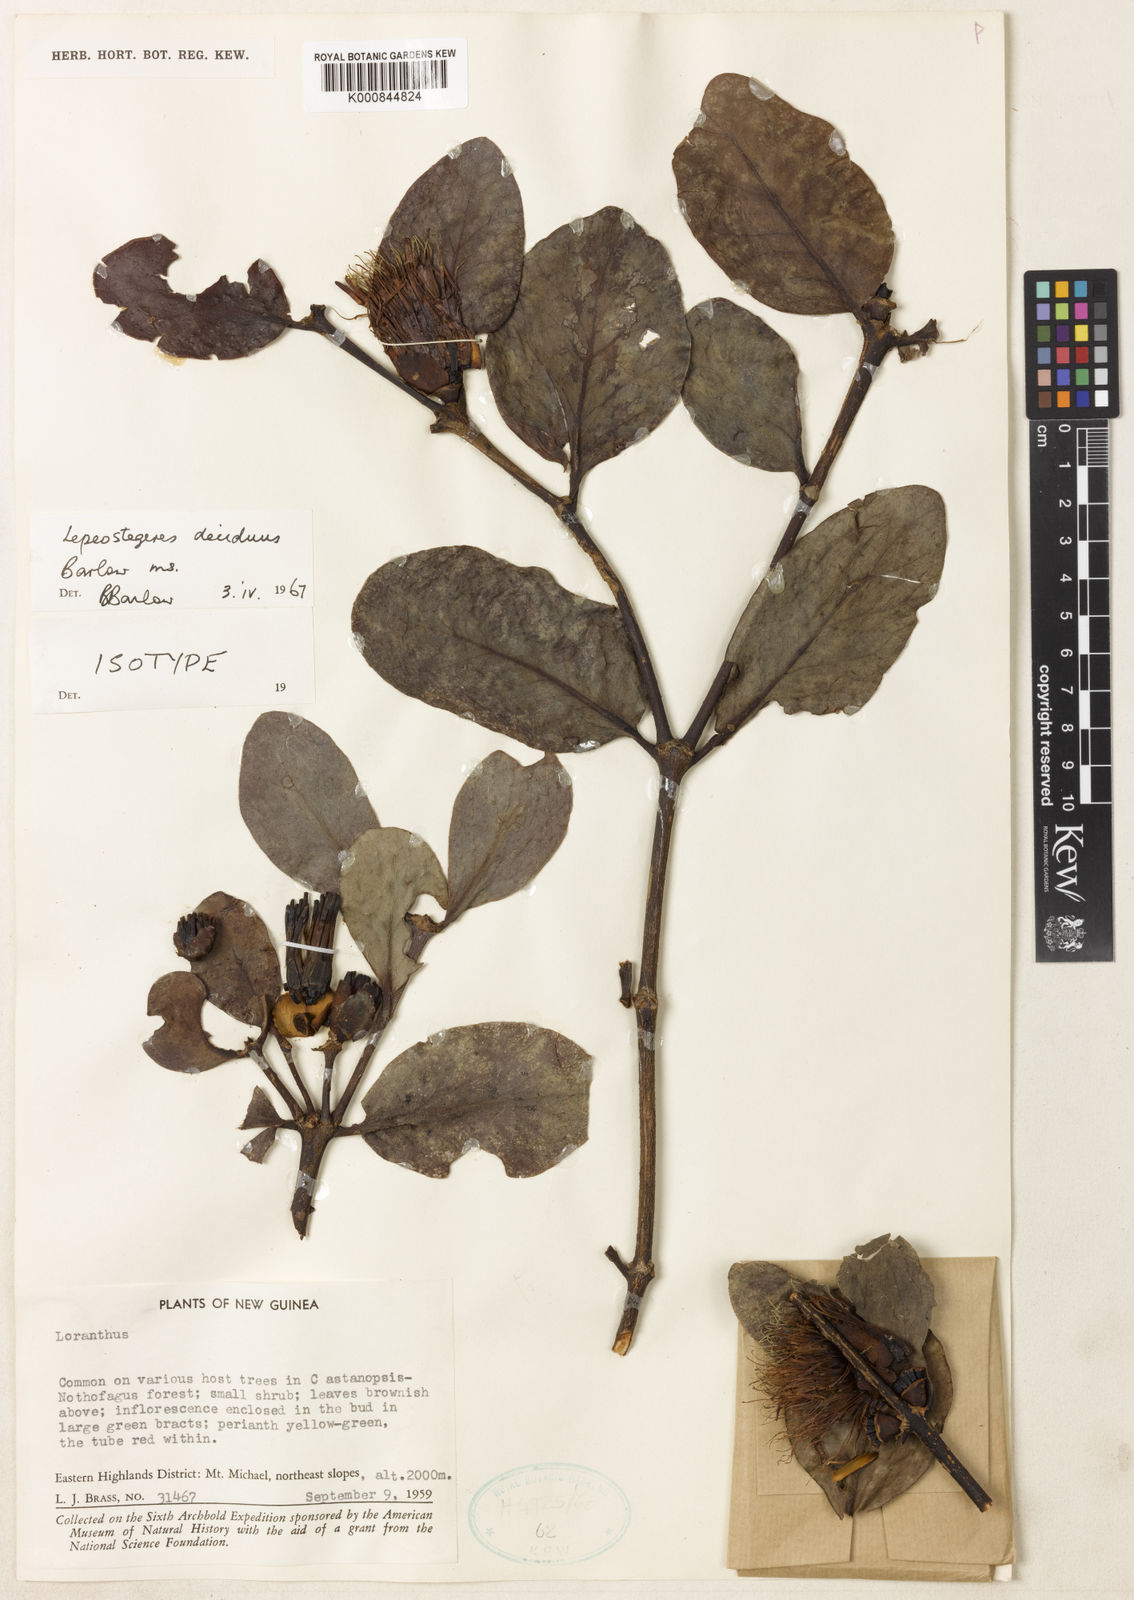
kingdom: Plantae
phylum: Tracheophyta
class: Magnoliopsida
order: Santalales
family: Loranthaceae
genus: Lepeostegeres
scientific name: Lepeostegeres deciduus
